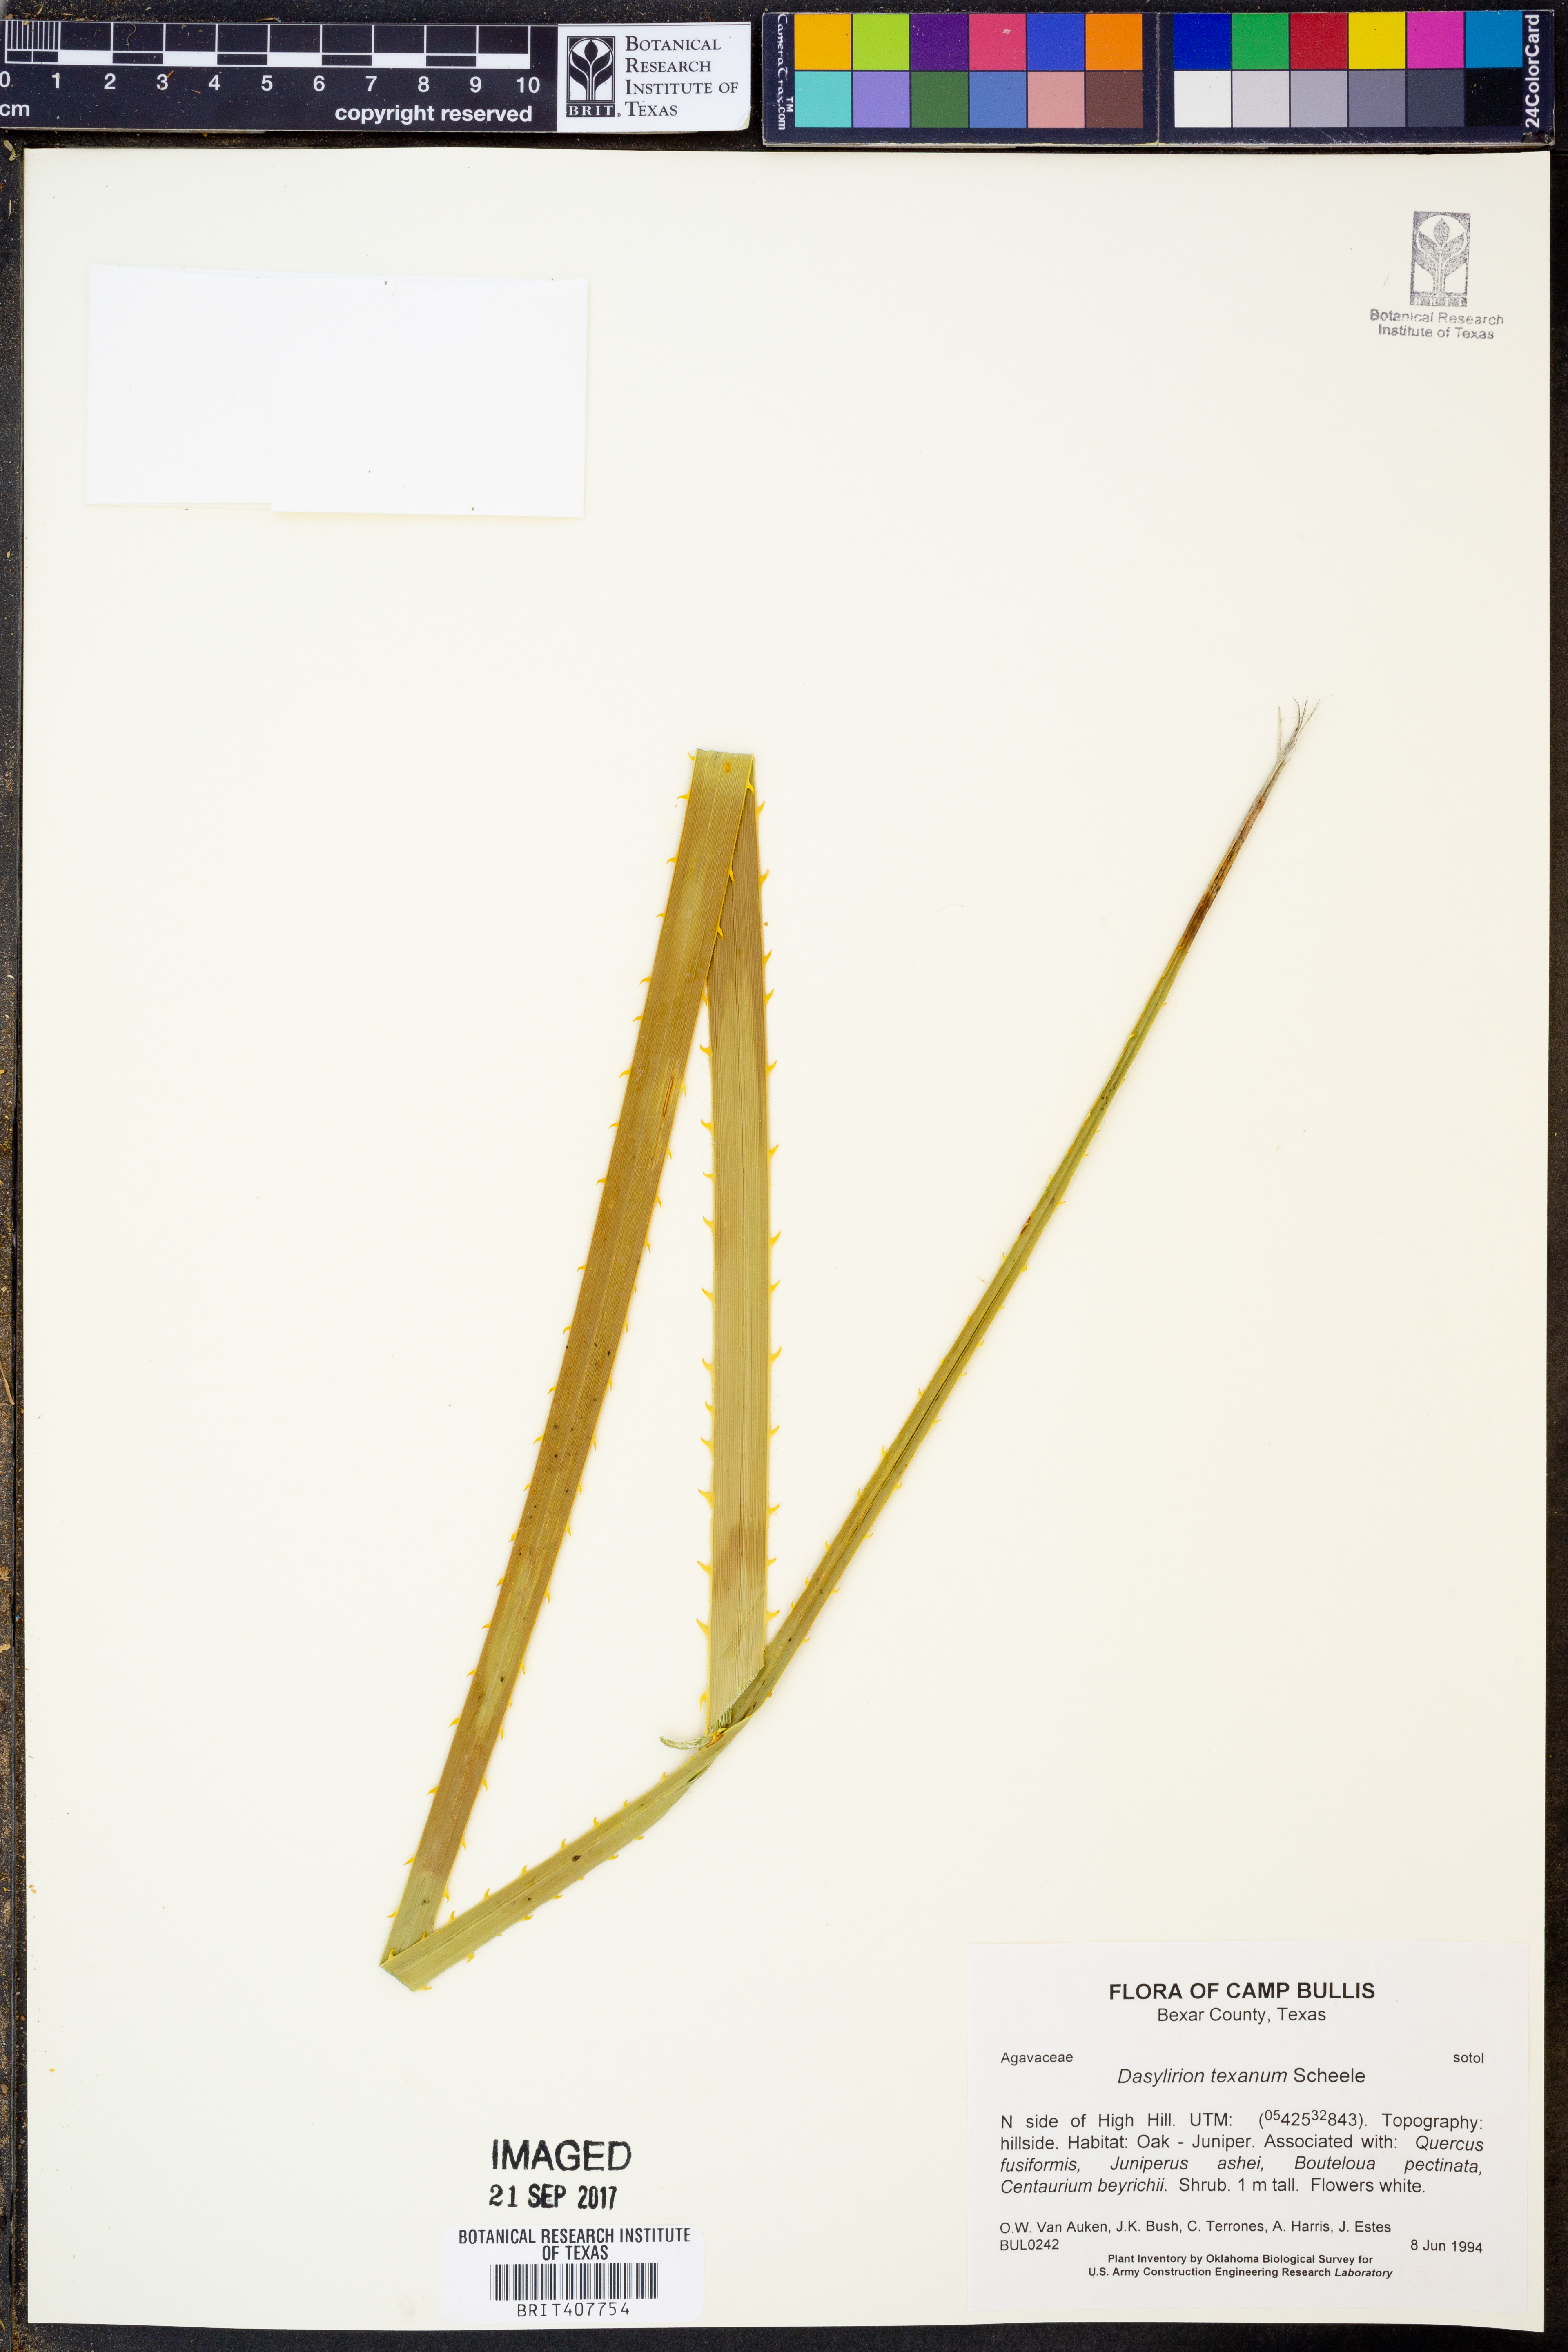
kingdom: Plantae
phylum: Tracheophyta
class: Liliopsida
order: Asparagales
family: Asparagaceae
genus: Dasylirion
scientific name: Dasylirion texanum
